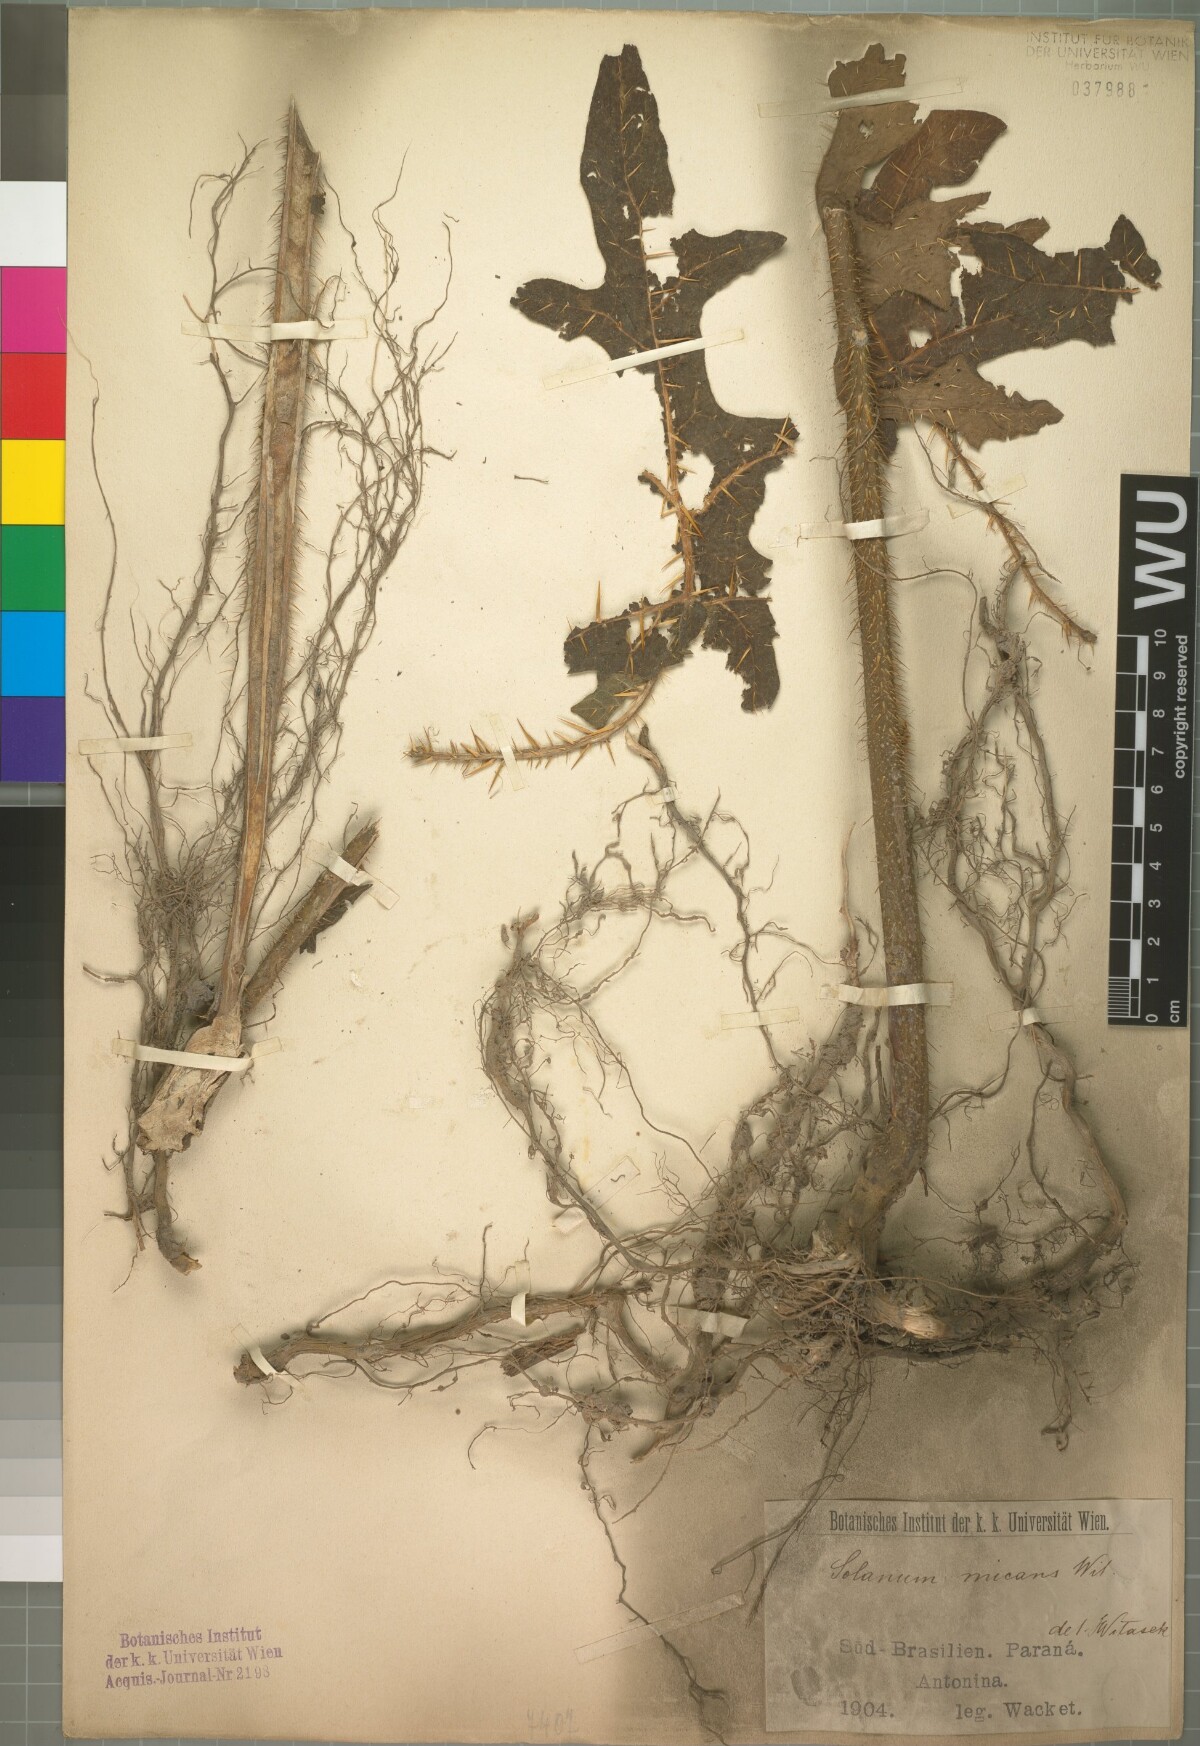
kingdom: Plantae
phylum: Tracheophyta
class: Magnoliopsida
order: Solanales
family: Solanaceae
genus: Solanum
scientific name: Solanum affine
